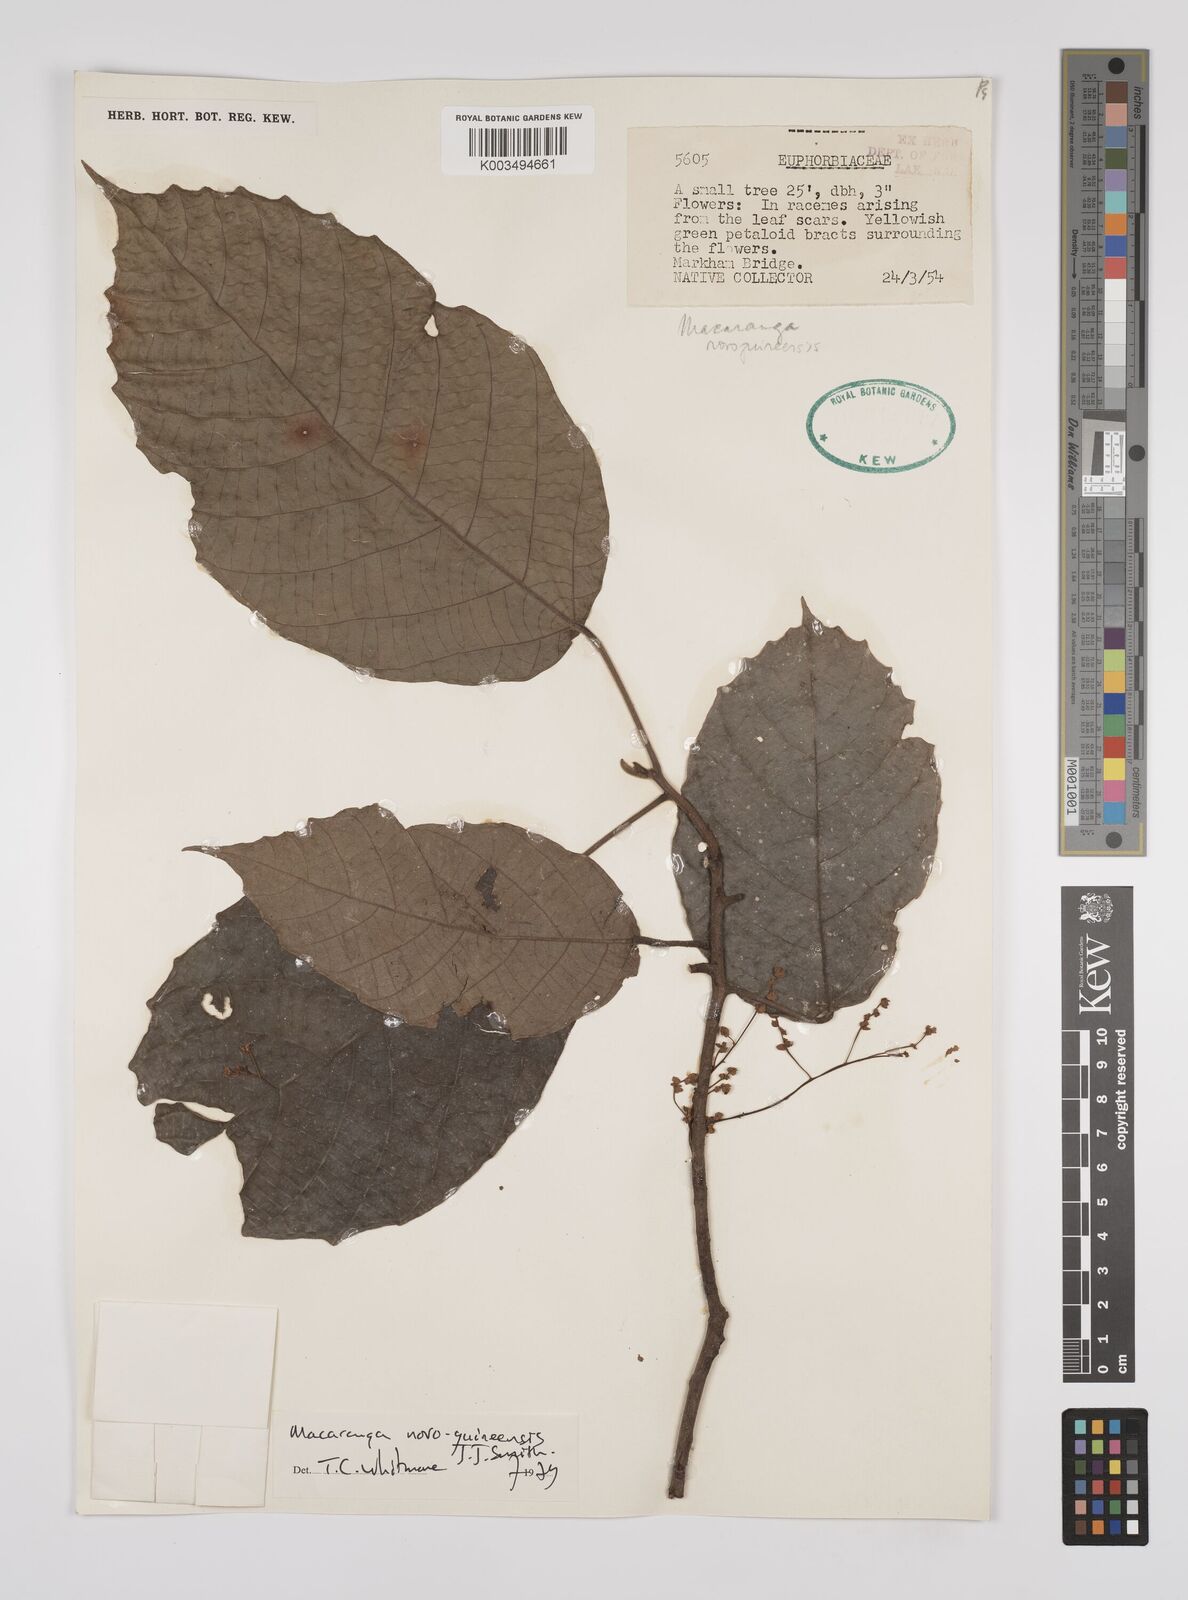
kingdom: Plantae
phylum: Tracheophyta
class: Magnoliopsida
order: Malpighiales
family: Euphorbiaceae
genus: Macaranga
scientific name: Macaranga novoguineensis
